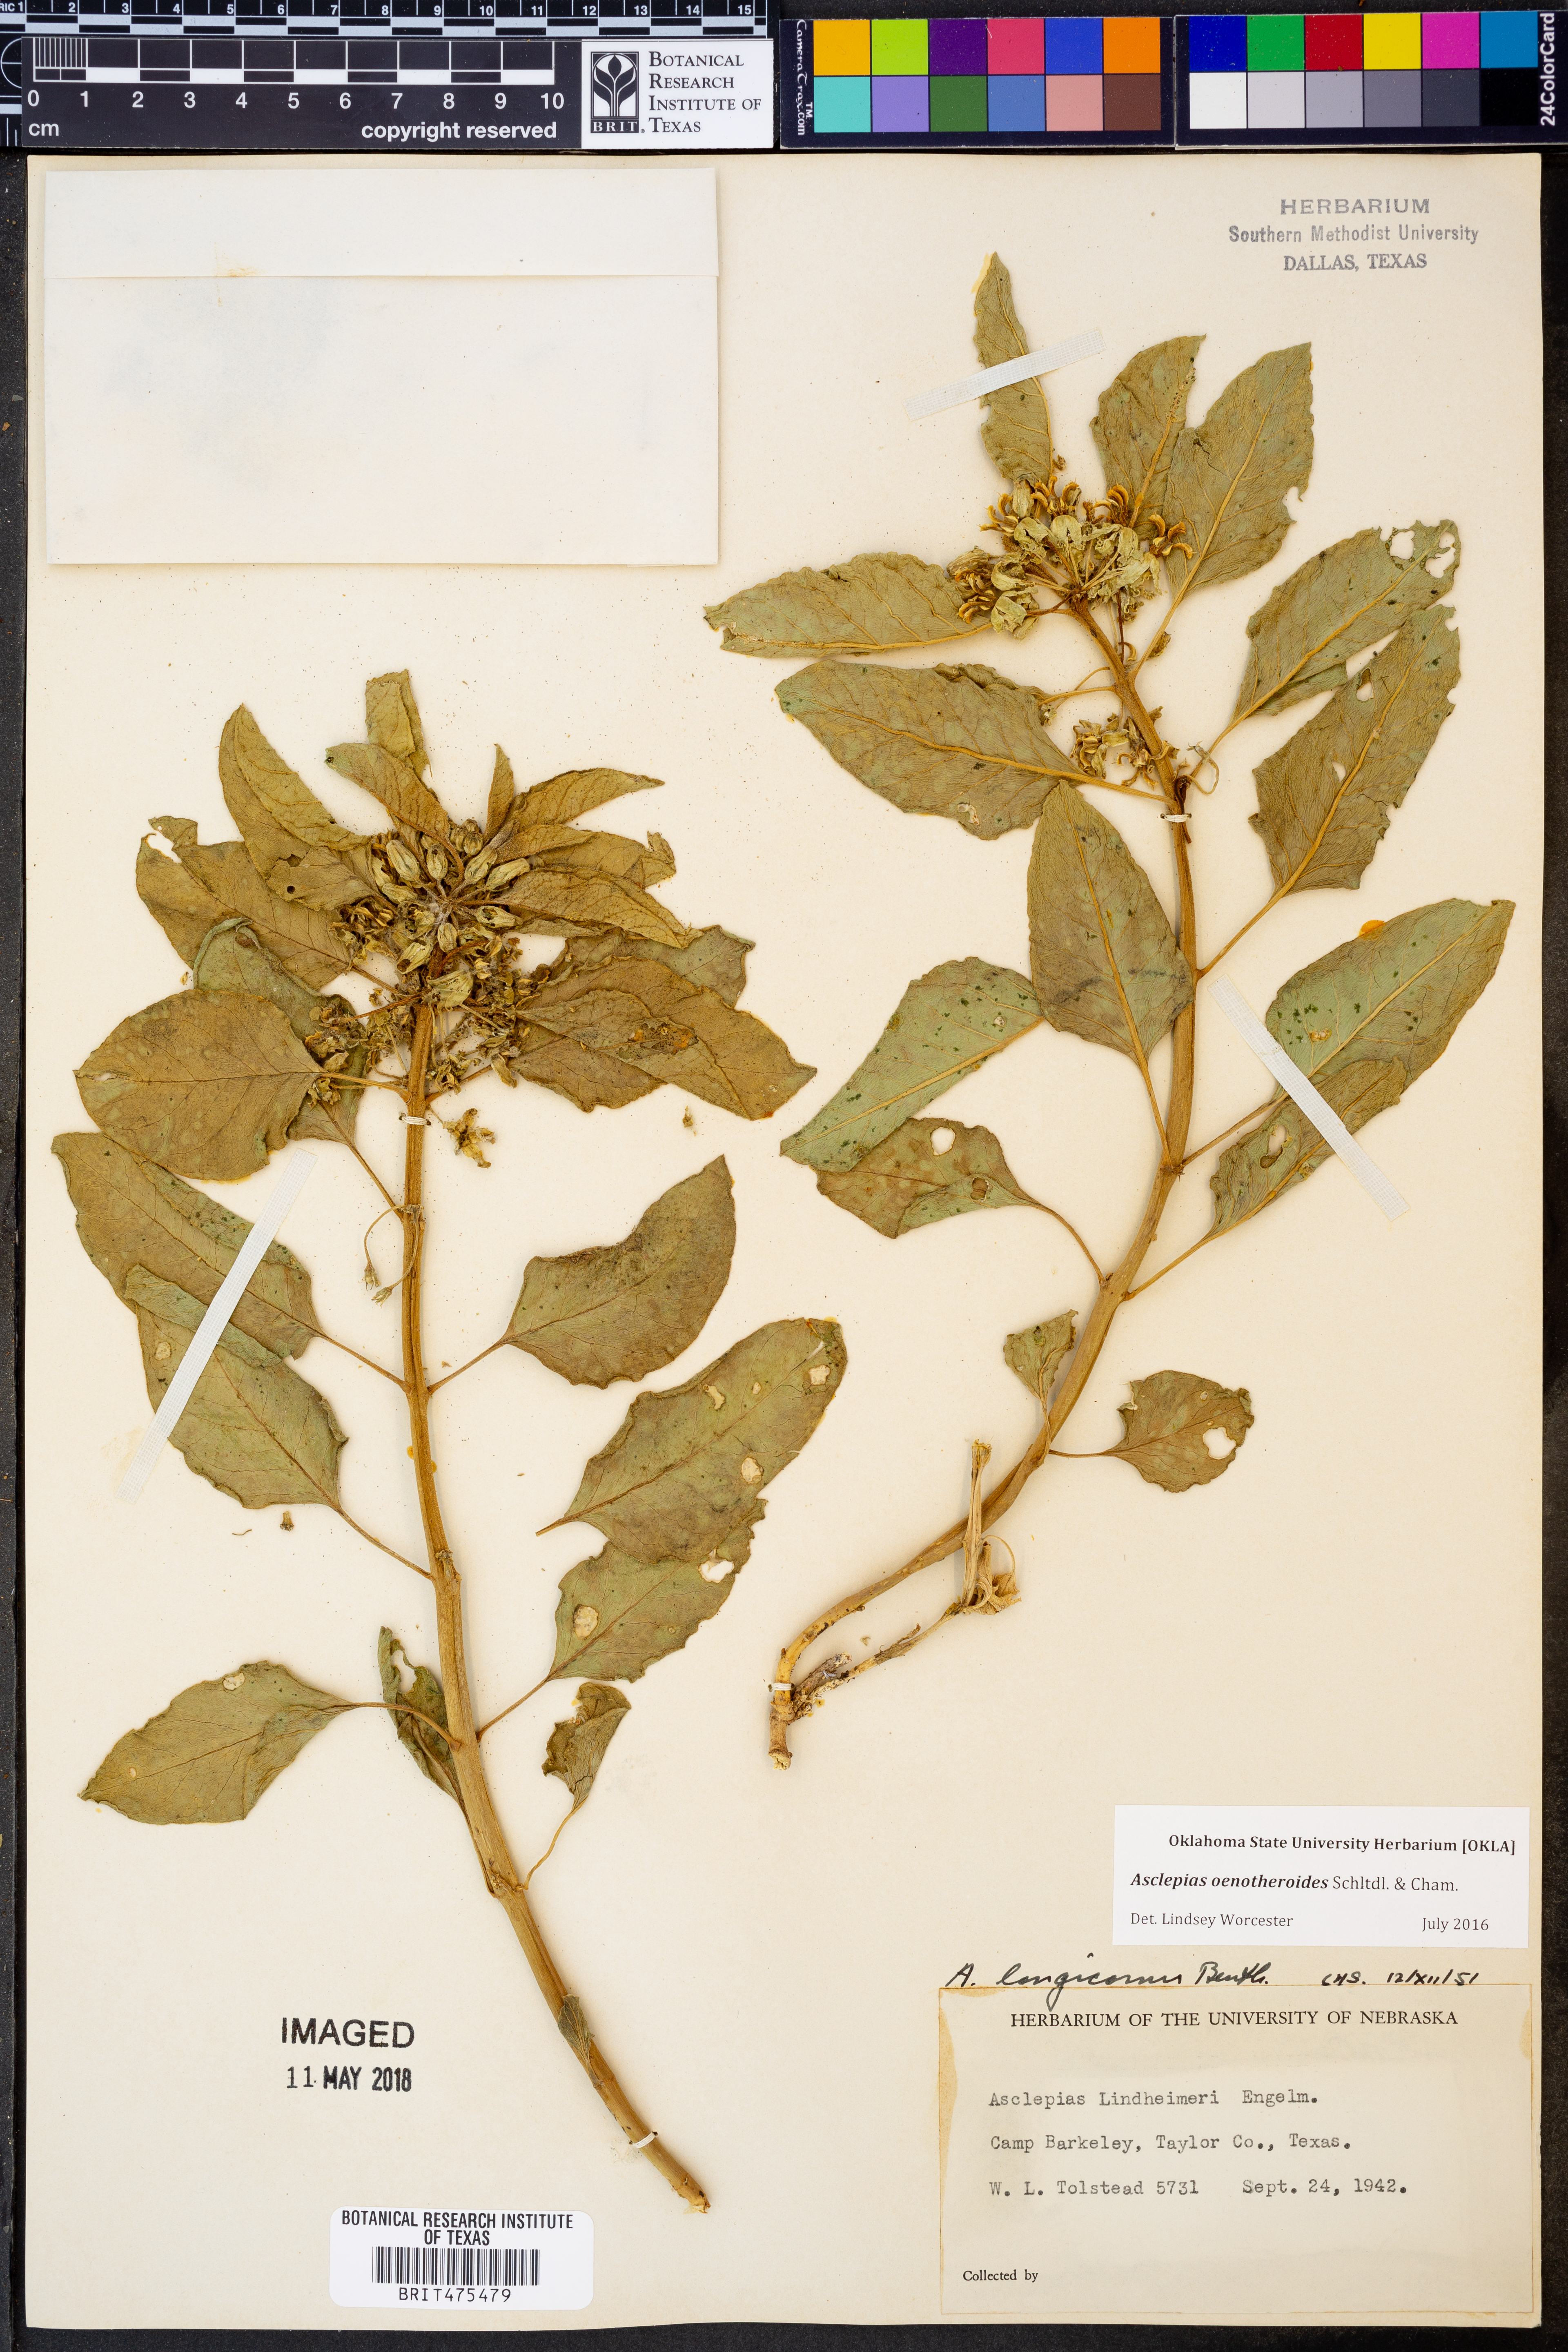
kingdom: Plantae
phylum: Tracheophyta
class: Magnoliopsida
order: Gentianales
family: Apocynaceae
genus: Asclepias
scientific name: Asclepias oenotheroides
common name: Zizotes milkweed
